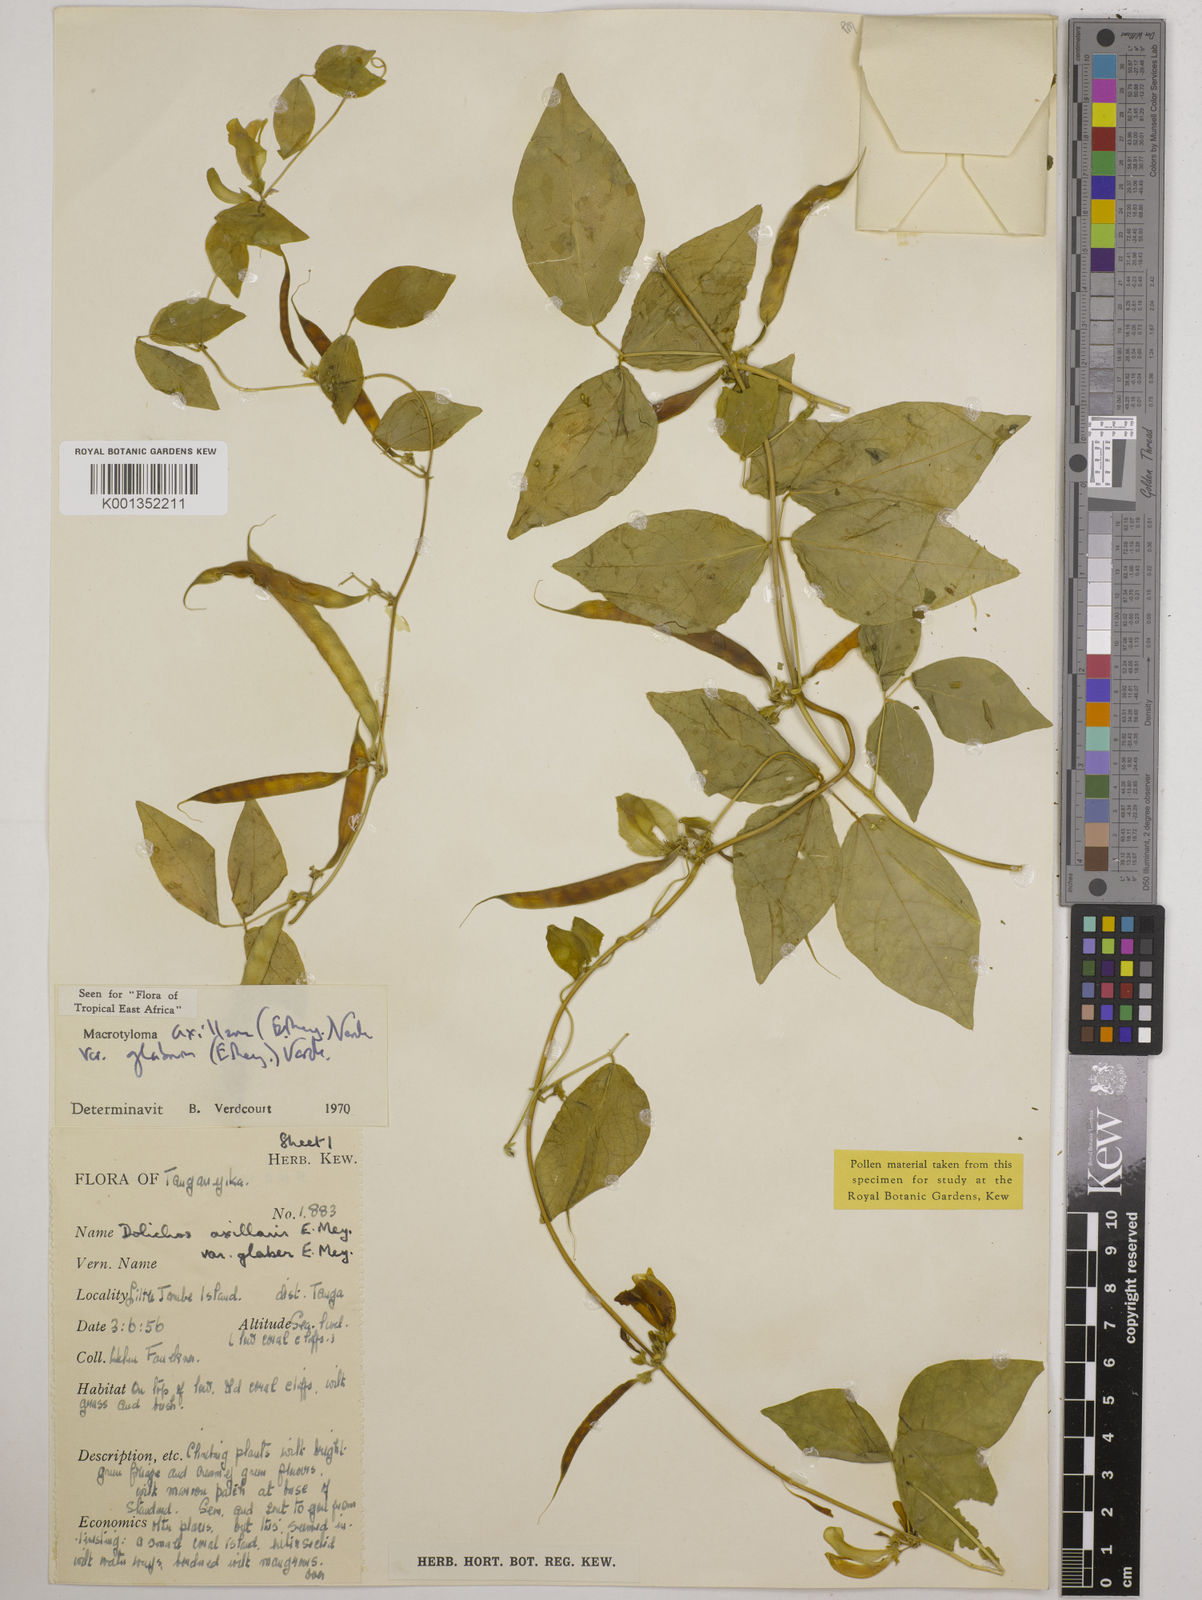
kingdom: Plantae
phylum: Tracheophyta
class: Magnoliopsida
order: Fabales
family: Fabaceae
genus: Macrotyloma
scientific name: Macrotyloma
